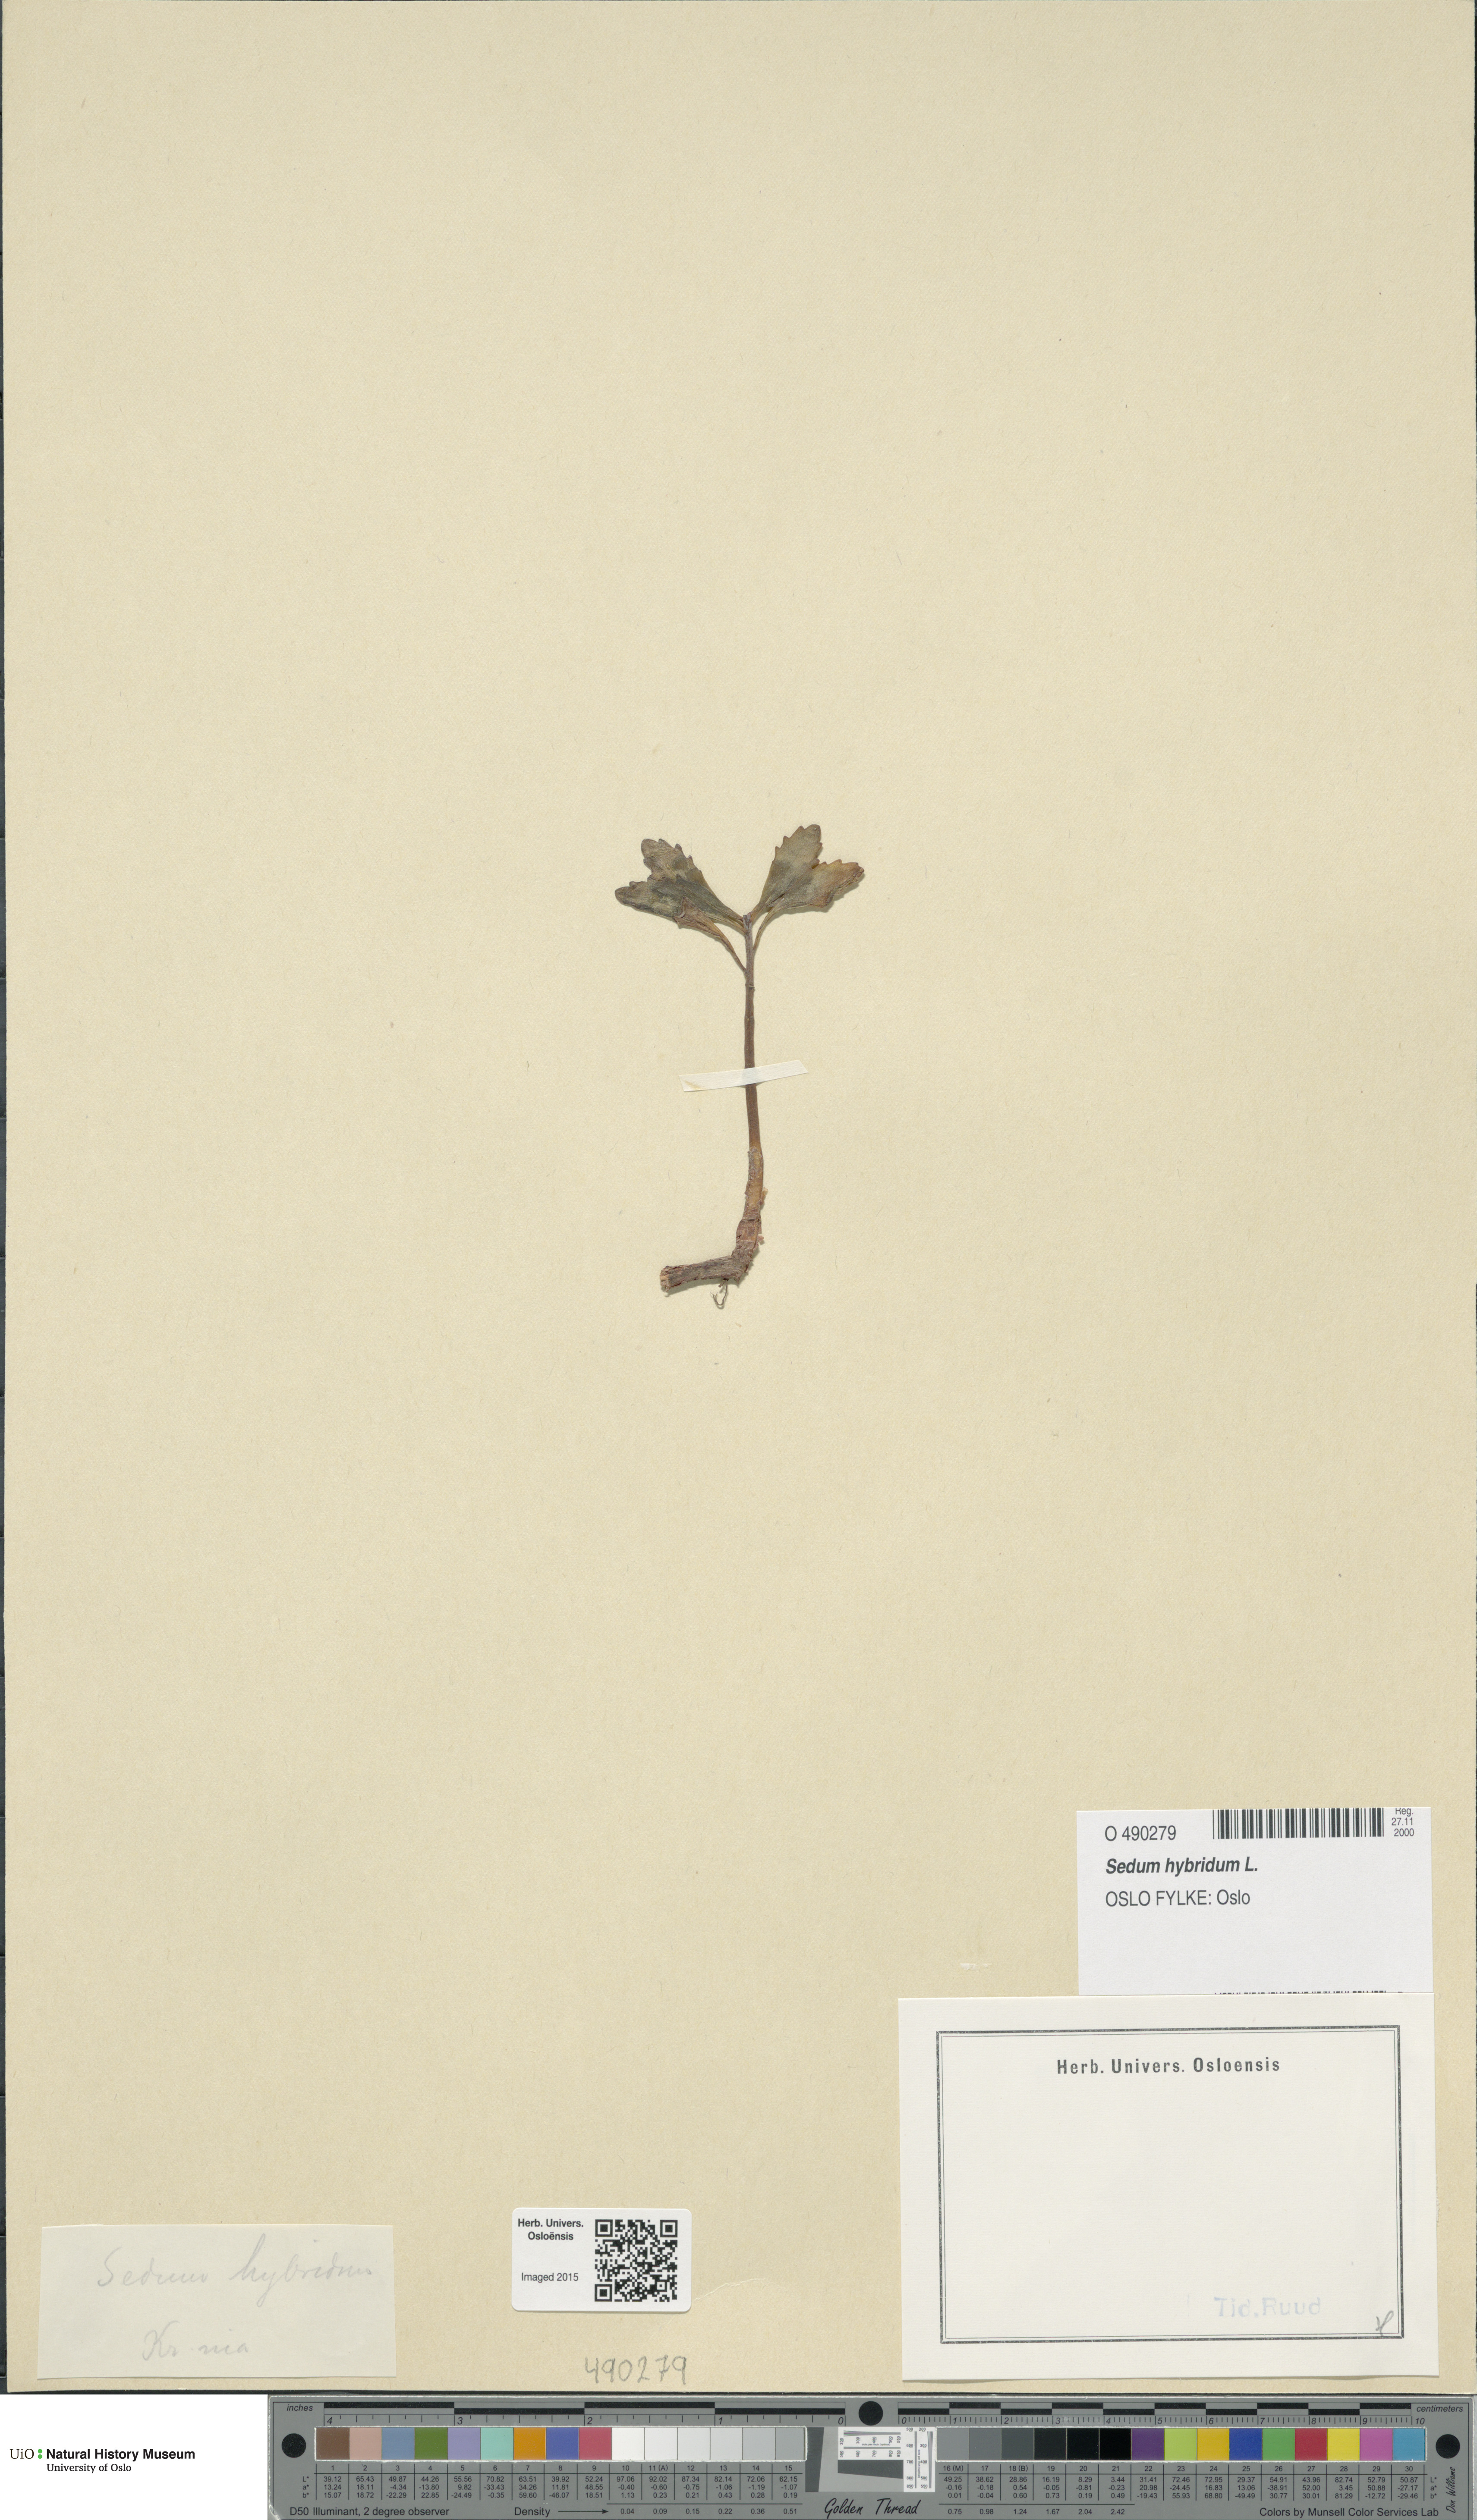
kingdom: Plantae
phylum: Tracheophyta
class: Magnoliopsida
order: Saxifragales
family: Crassulaceae
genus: Phedimus
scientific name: Phedimus hybridus
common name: Hybrid stonecrop
